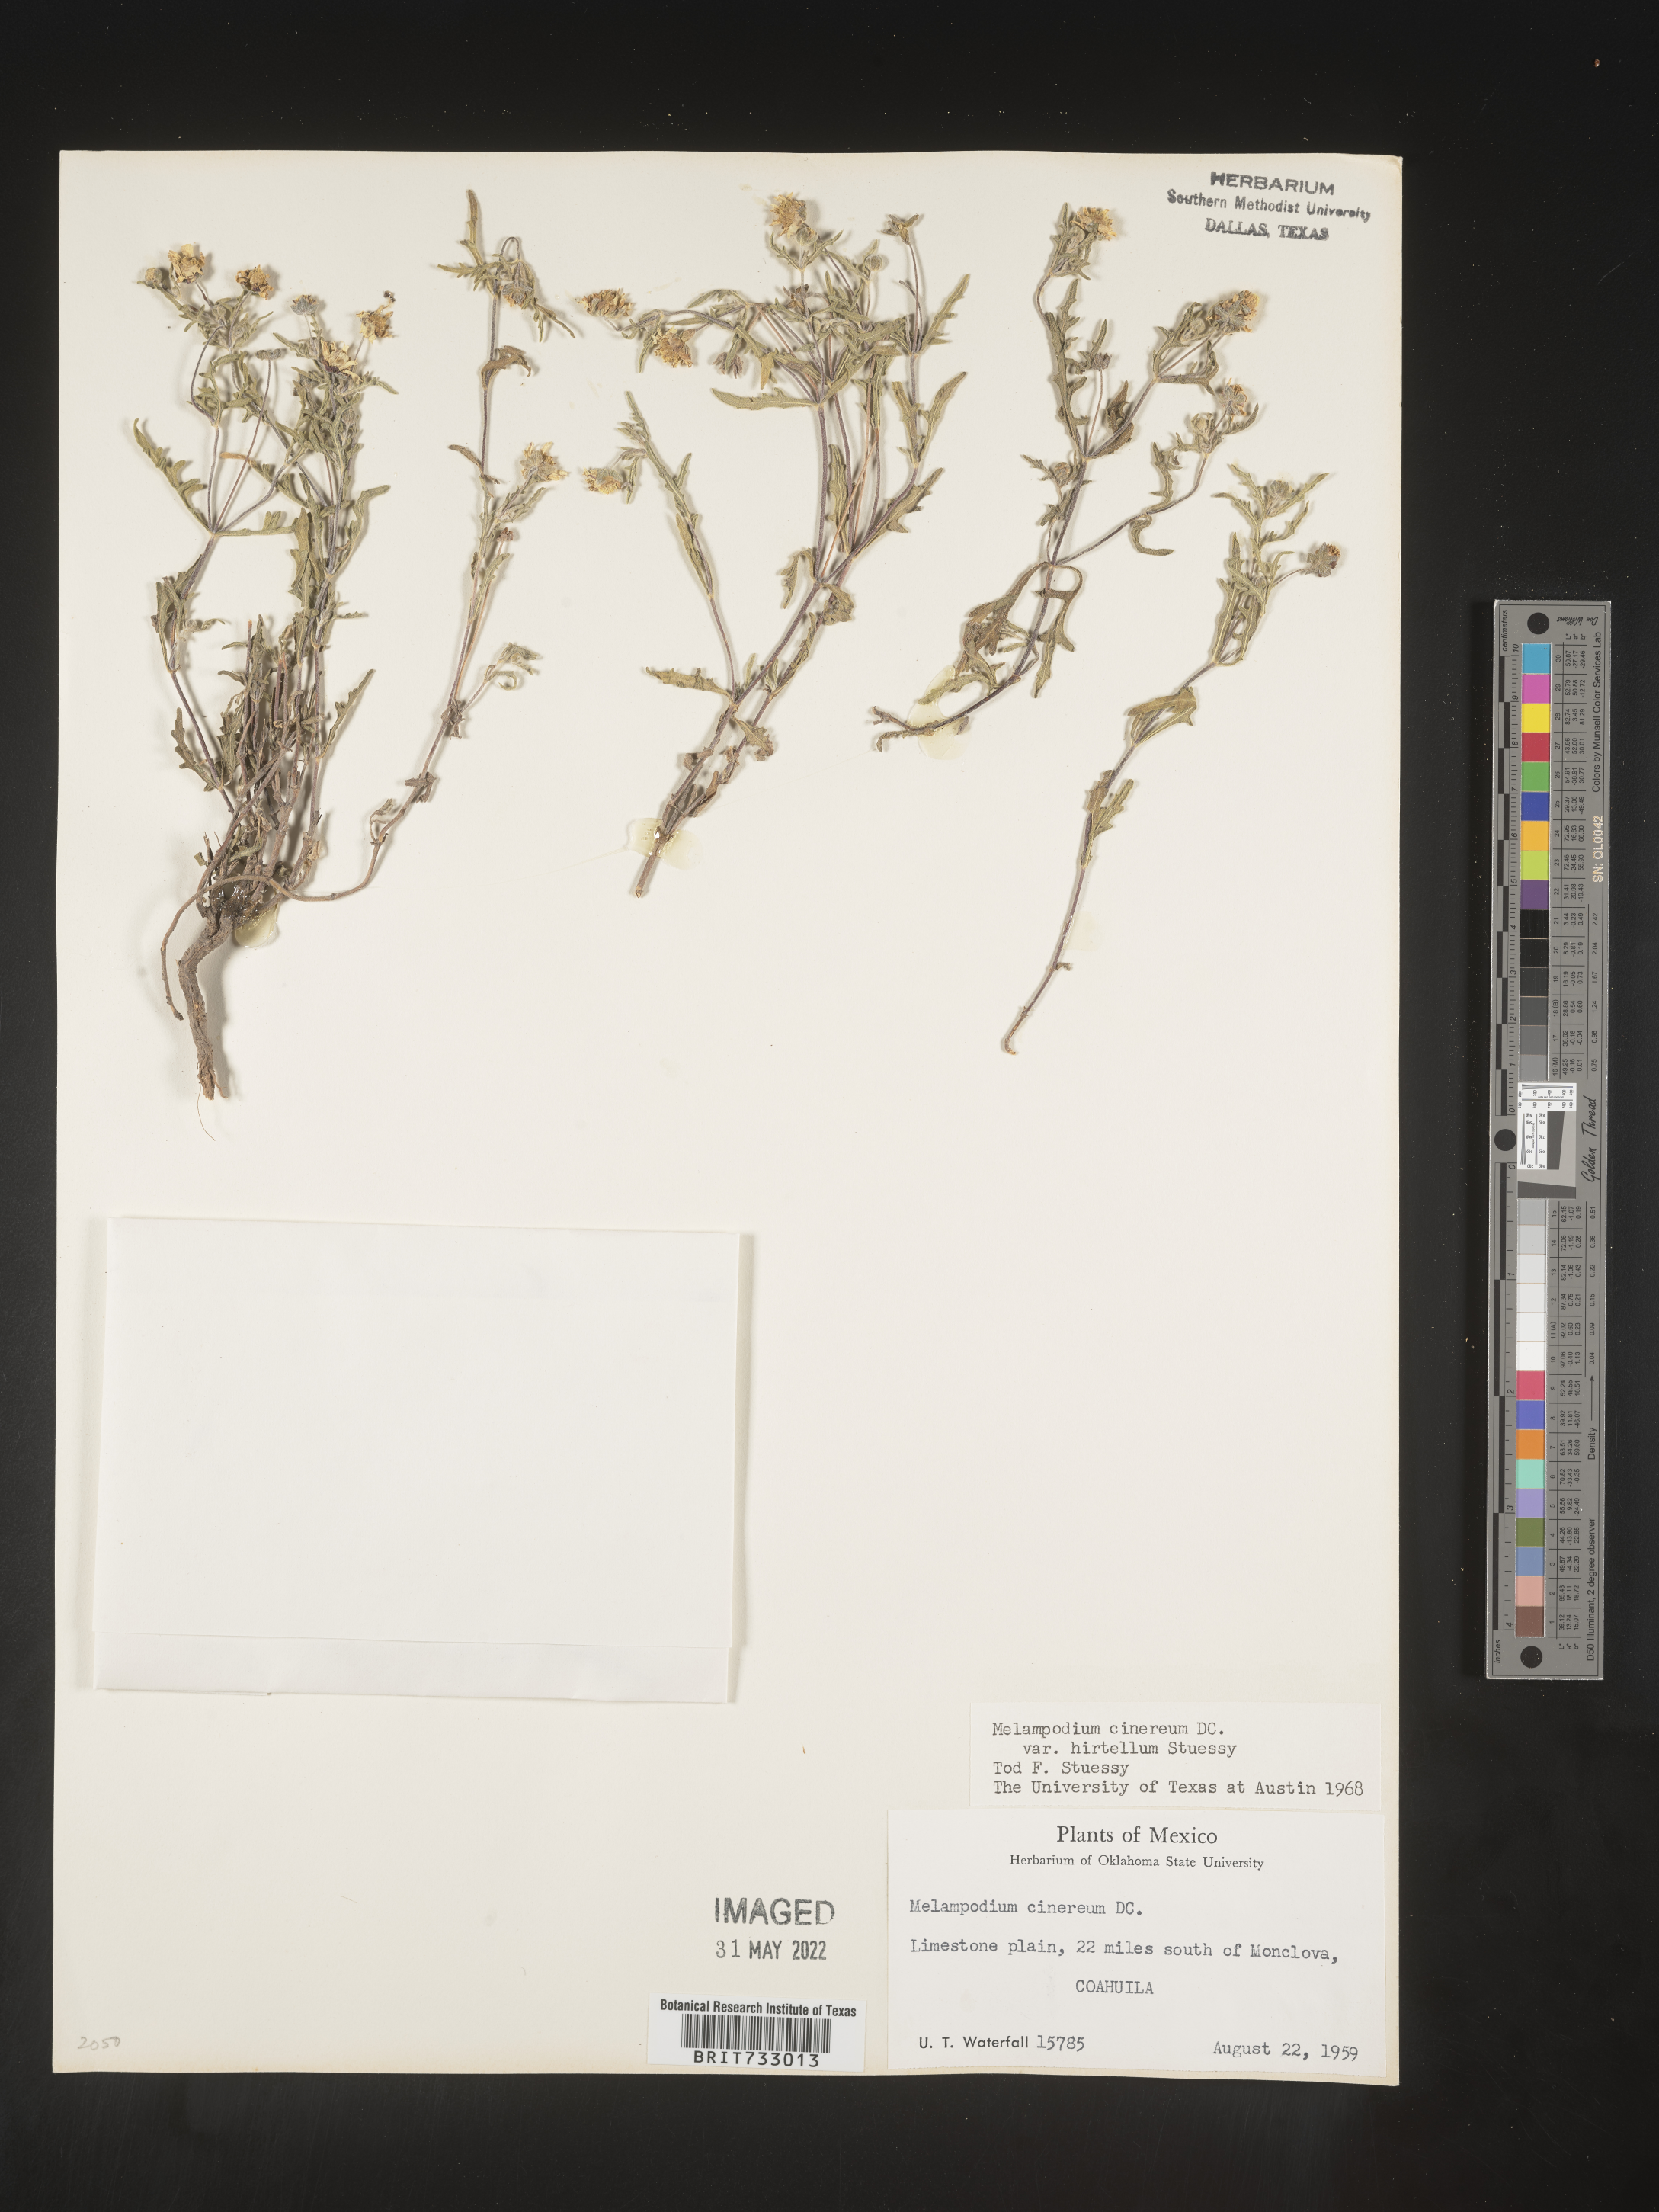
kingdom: Plantae
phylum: Tracheophyta
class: Magnoliopsida
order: Asterales
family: Asteraceae
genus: Melampodium
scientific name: Melampodium
